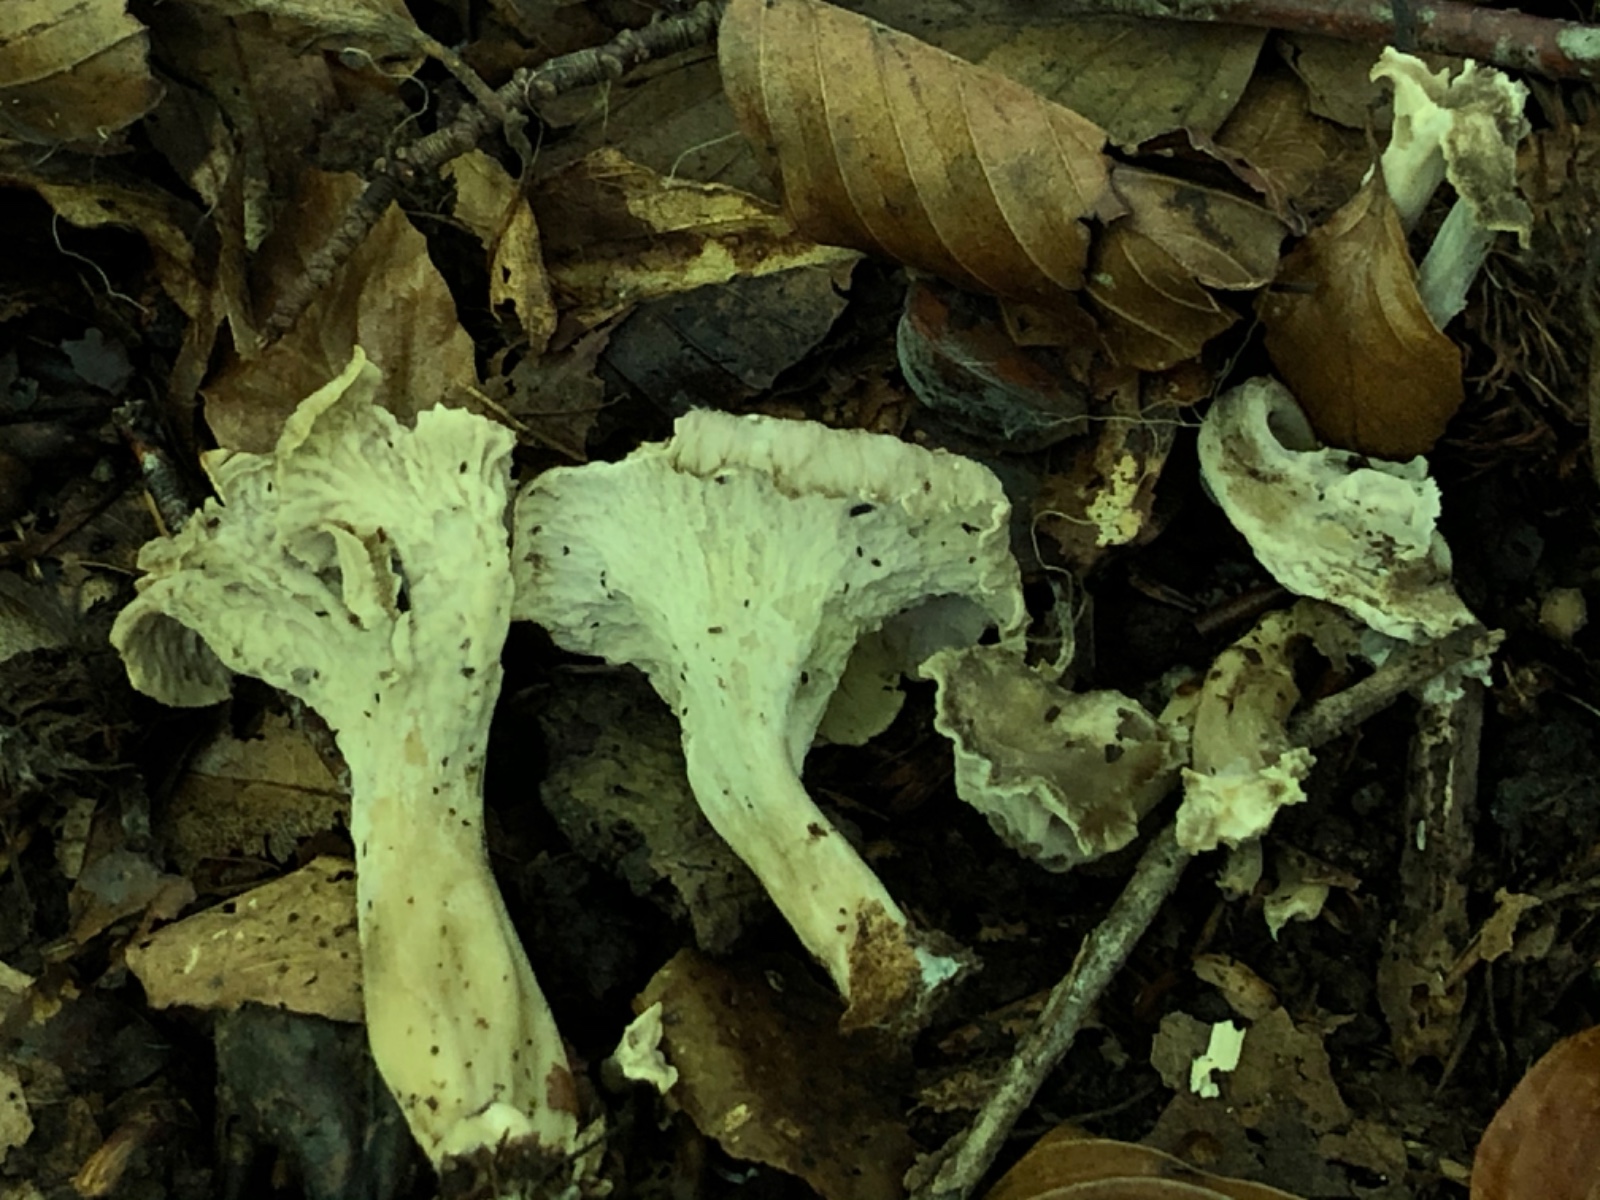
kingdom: Fungi
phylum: Basidiomycota
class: Agaricomycetes
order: Cantharellales
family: Hydnaceae
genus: Craterellus
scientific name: Craterellus undulatus
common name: liden kantarel
